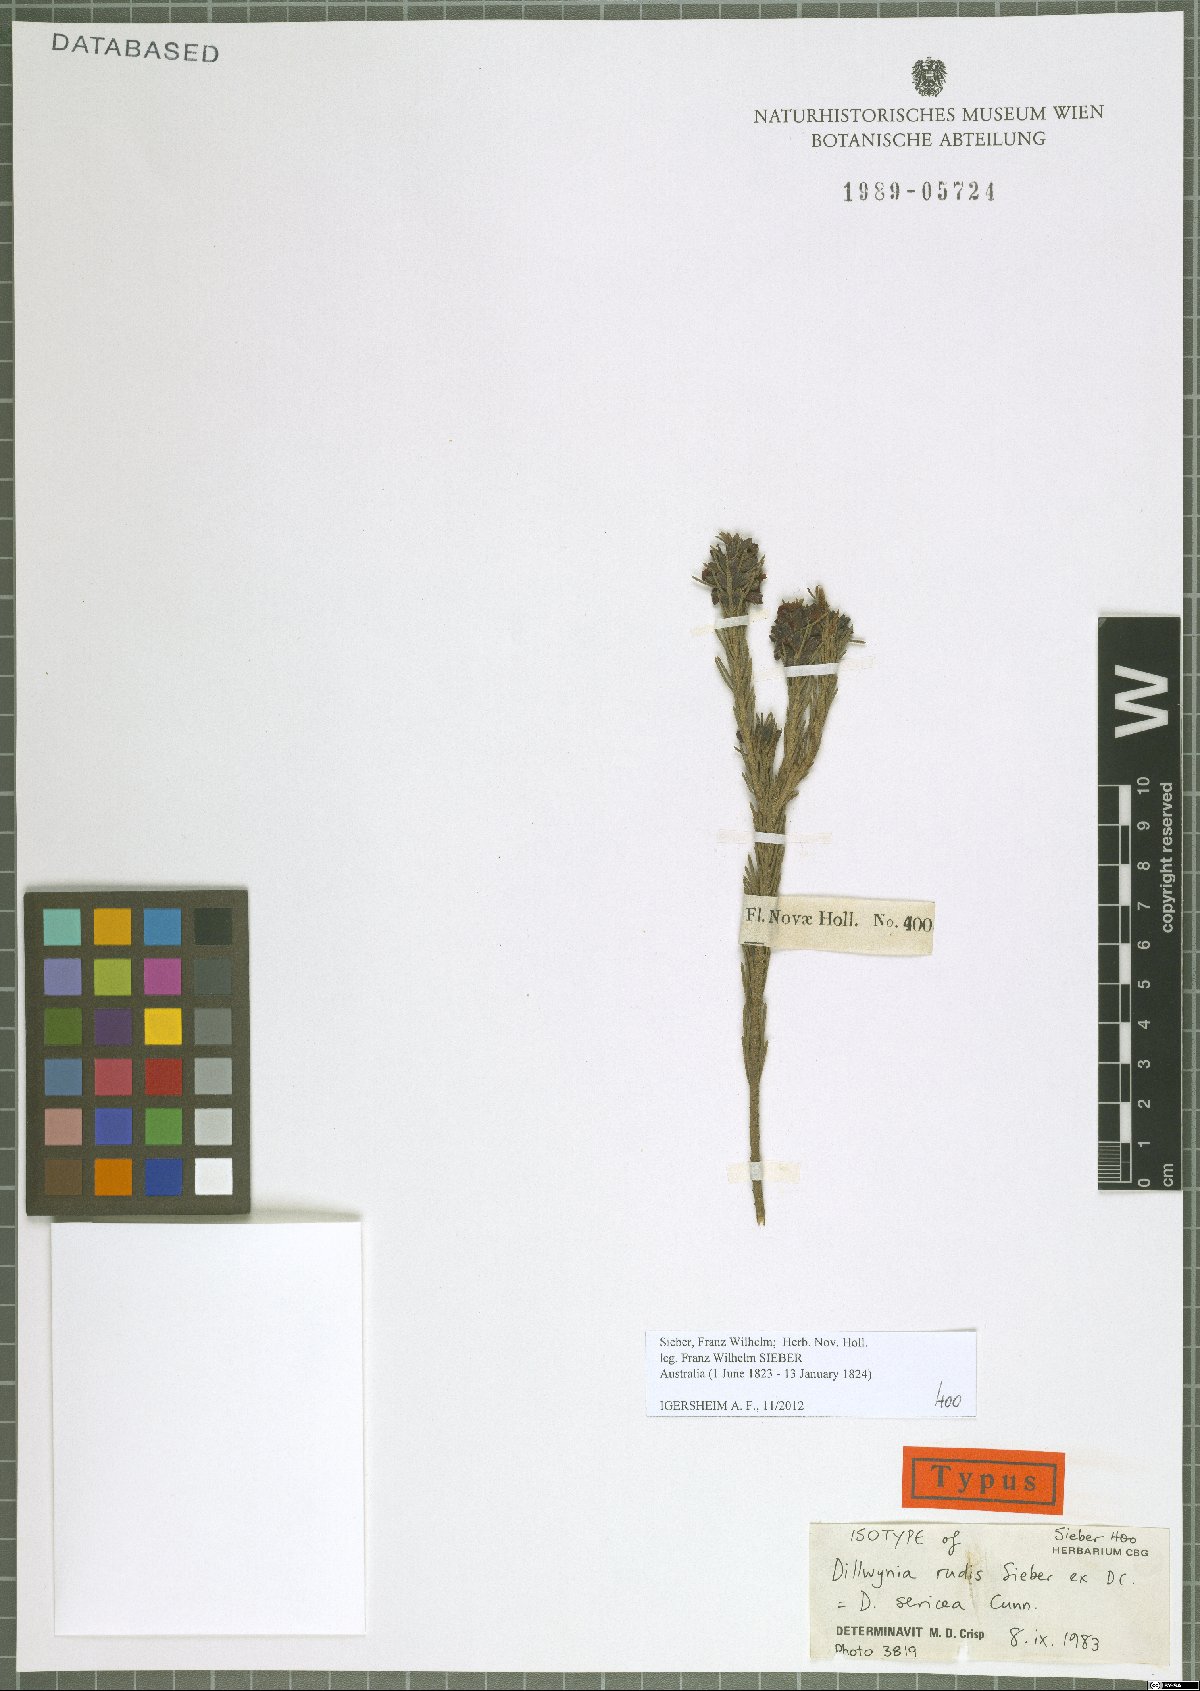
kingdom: Plantae
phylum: Tracheophyta
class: Magnoliopsida
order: Fabales
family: Fabaceae
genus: Dillwynia
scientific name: Dillwynia sericea
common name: Showy parrot-pea
